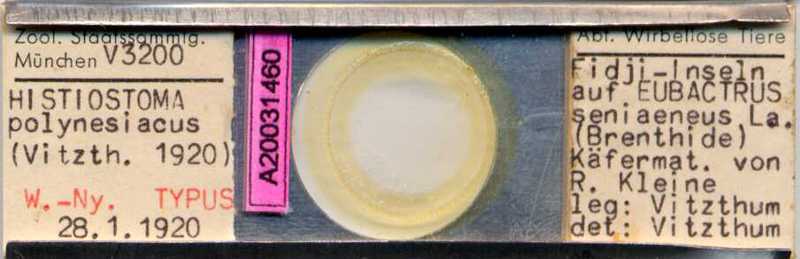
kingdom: Animalia
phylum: Arthropoda
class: Arachnida
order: Sarcoptiformes
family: Histiostomatidae
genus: Histiostoma
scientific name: Histiostoma
